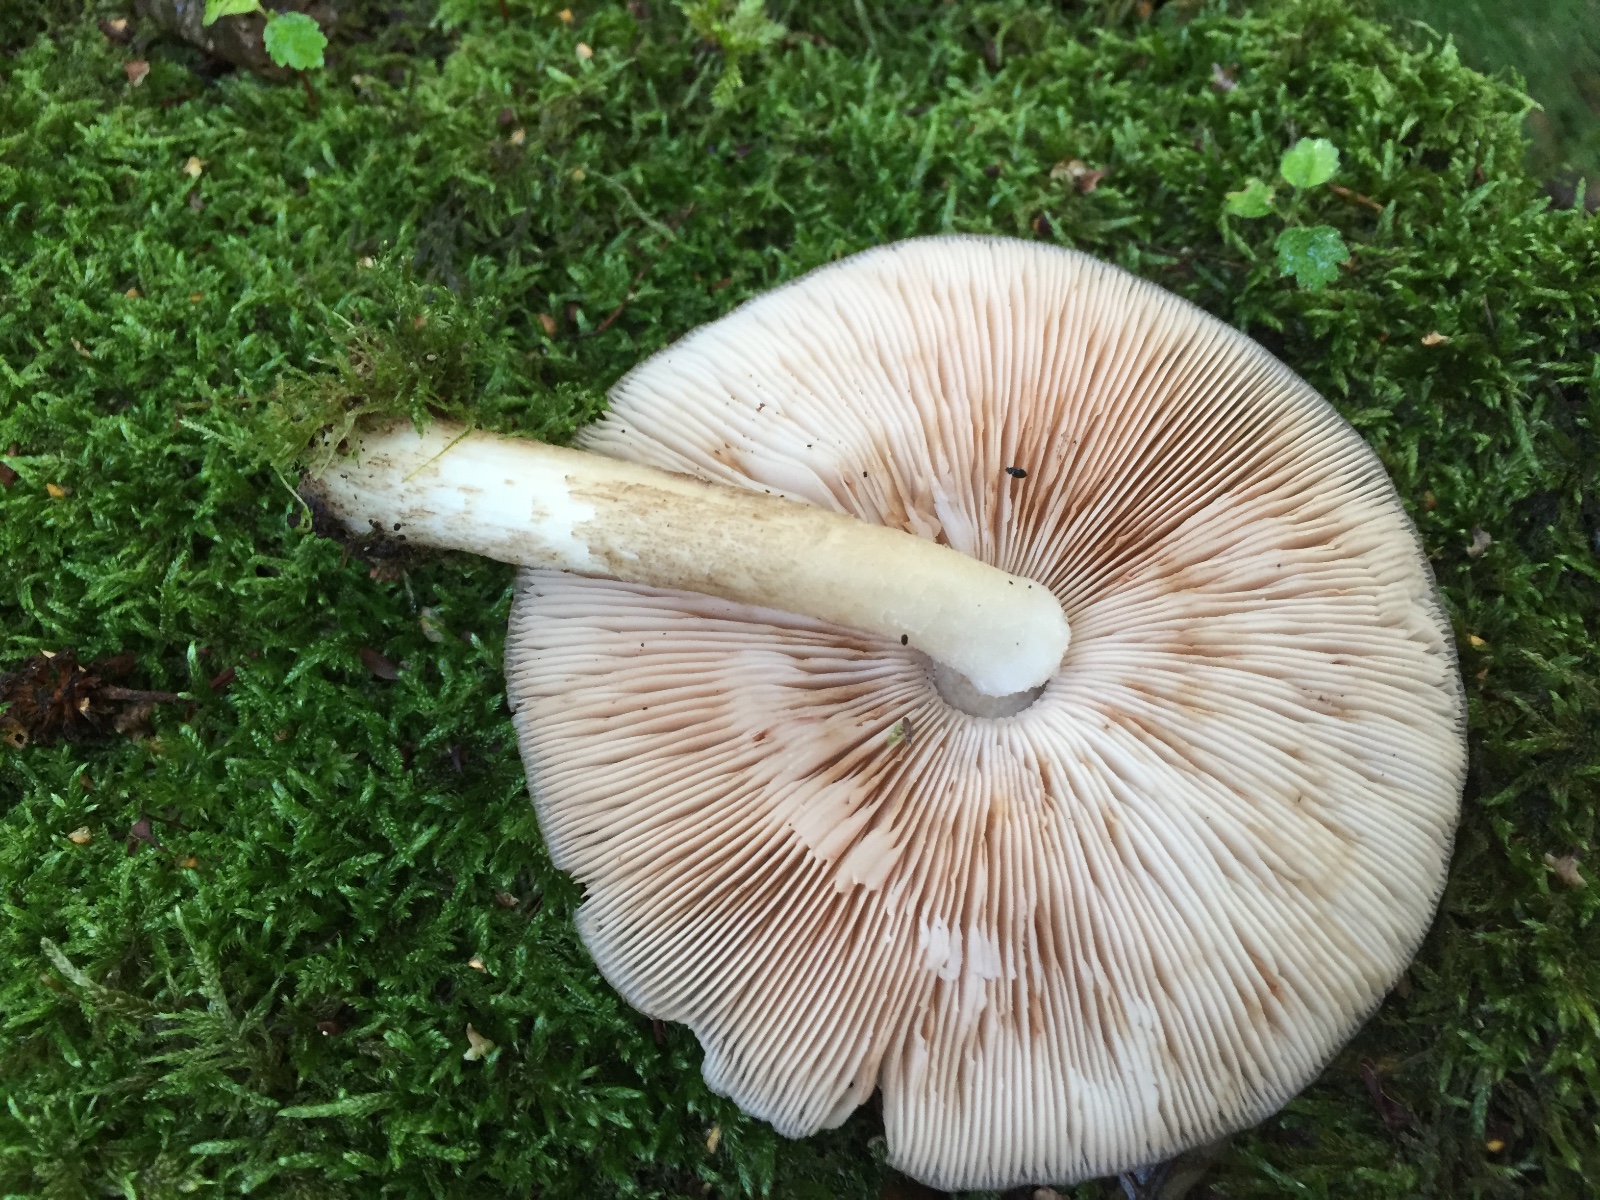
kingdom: Fungi
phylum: Basidiomycota
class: Agaricomycetes
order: Agaricales
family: Pluteaceae
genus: Pluteus
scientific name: Pluteus cervinus
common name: sodfarvet skærmhat
